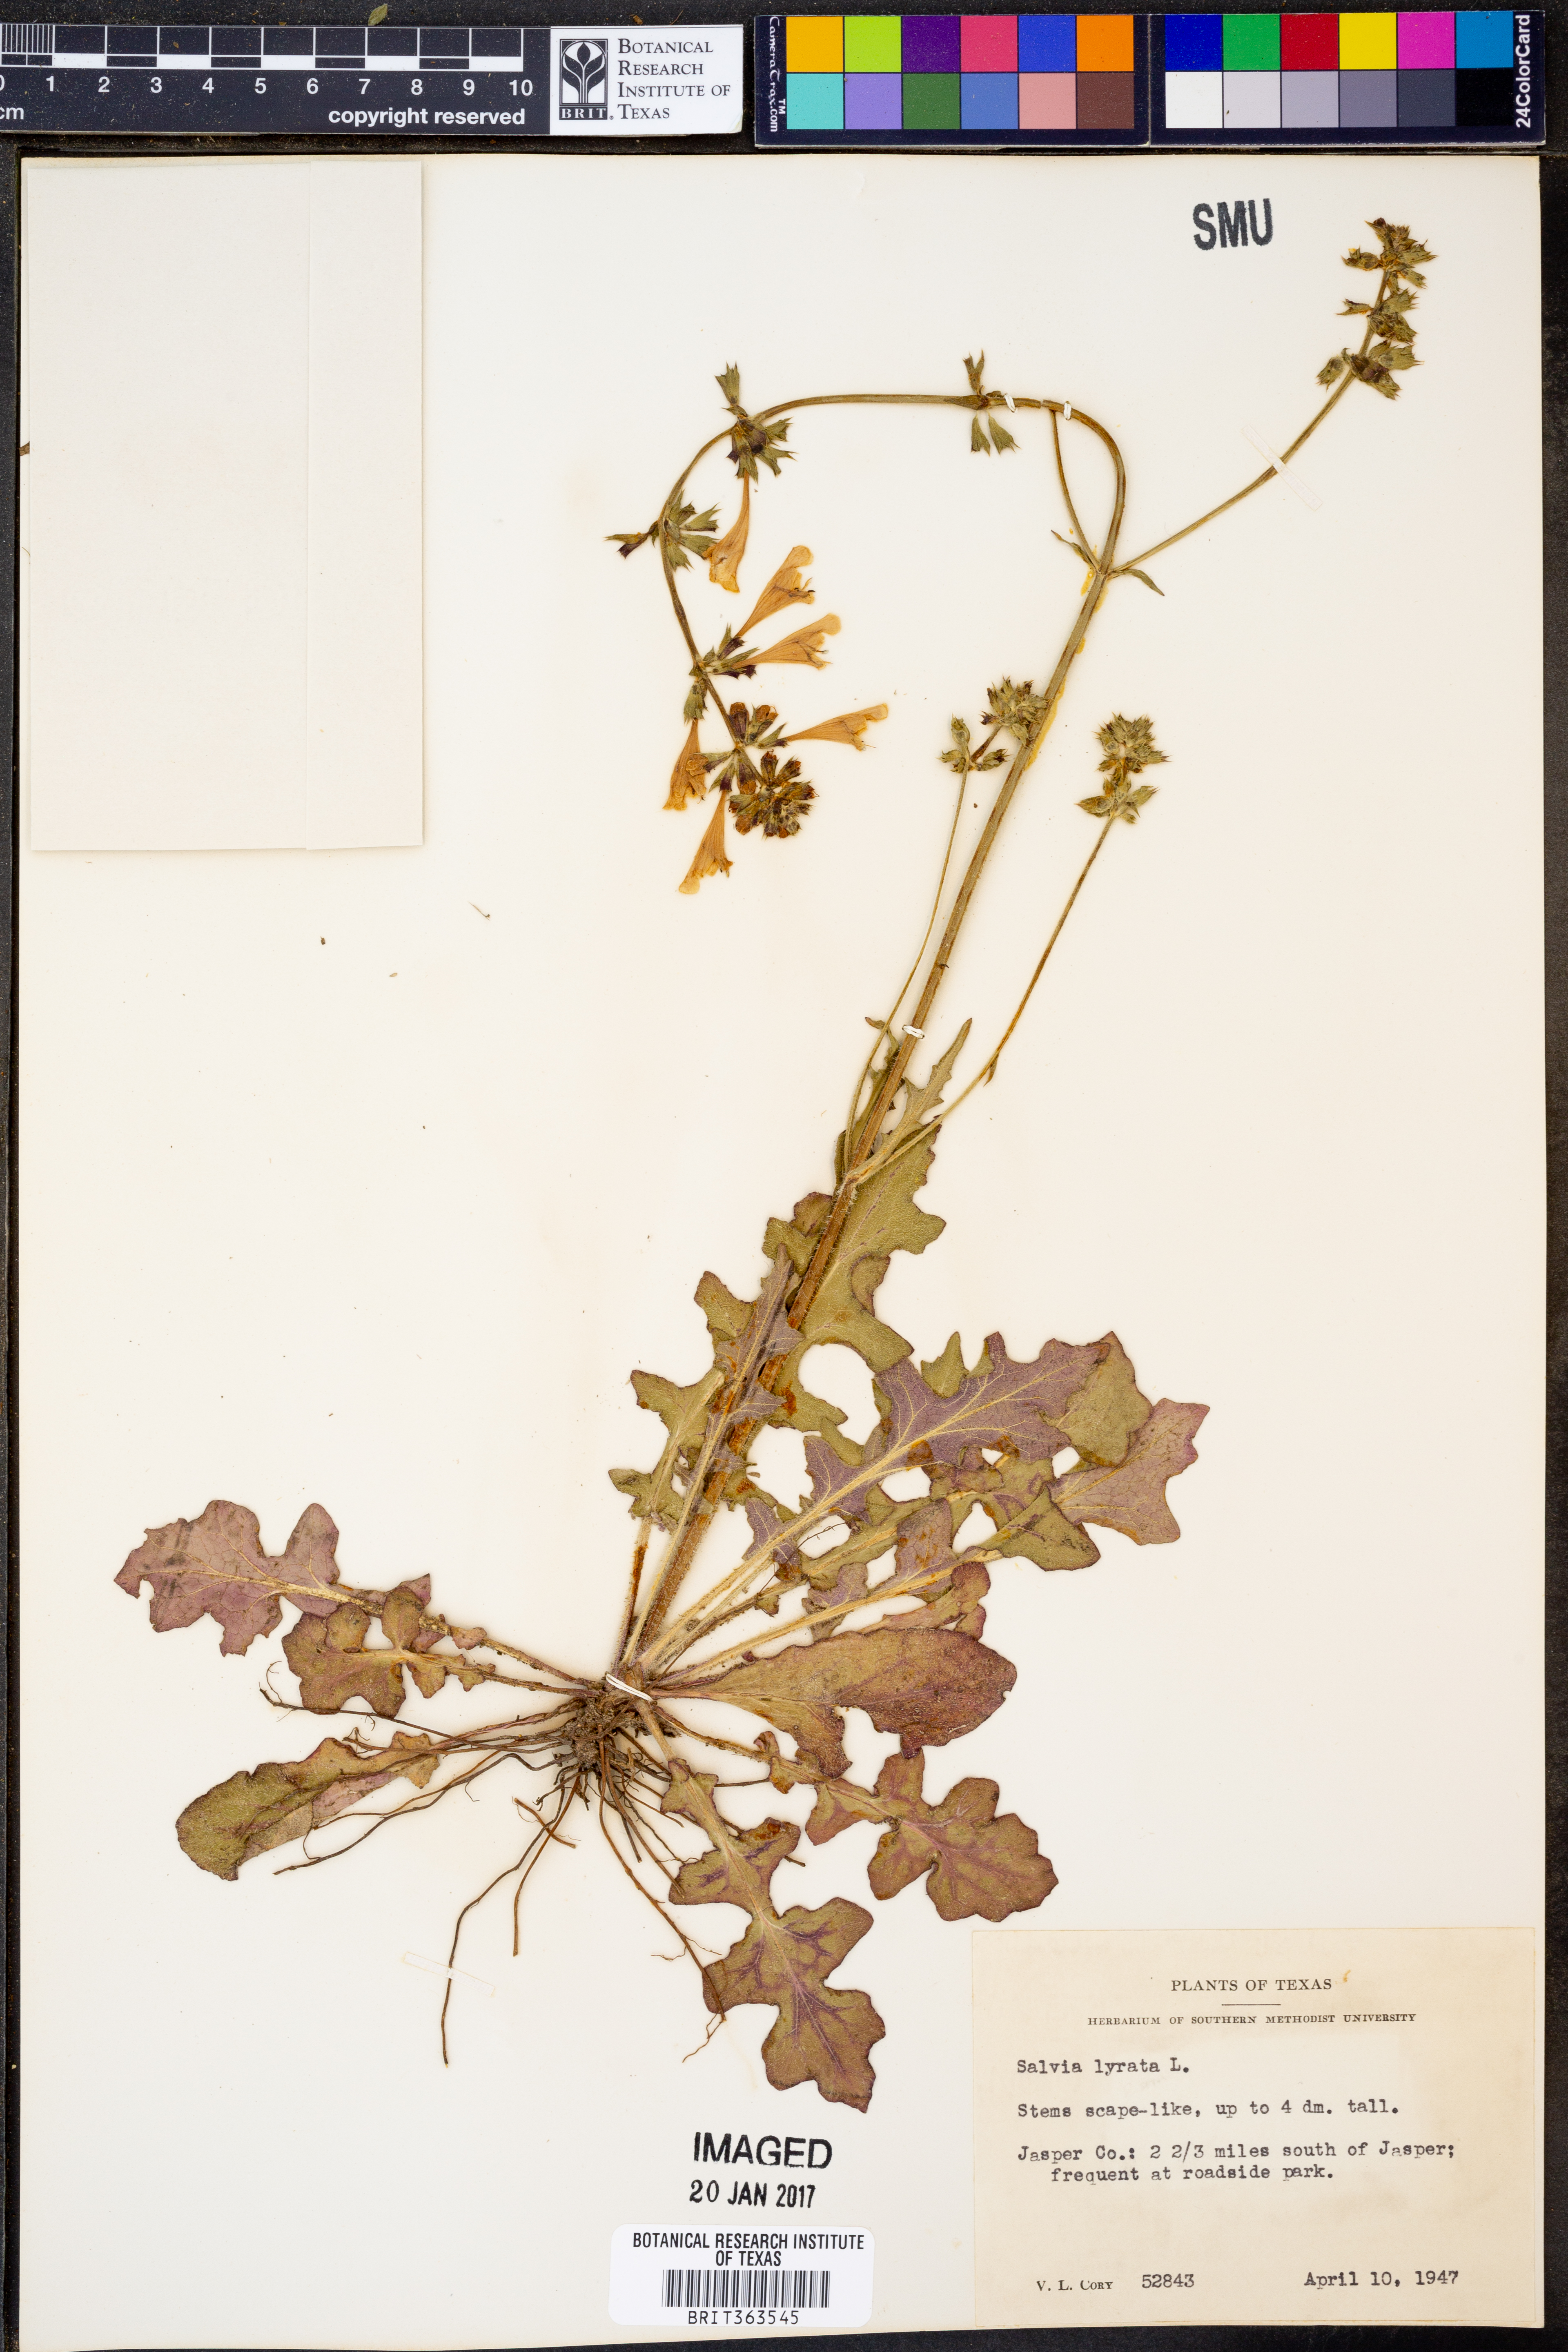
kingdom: Plantae
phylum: Tracheophyta
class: Magnoliopsida
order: Lamiales
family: Lamiaceae
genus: Salvia
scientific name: Salvia lyrata
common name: Cancerweed
